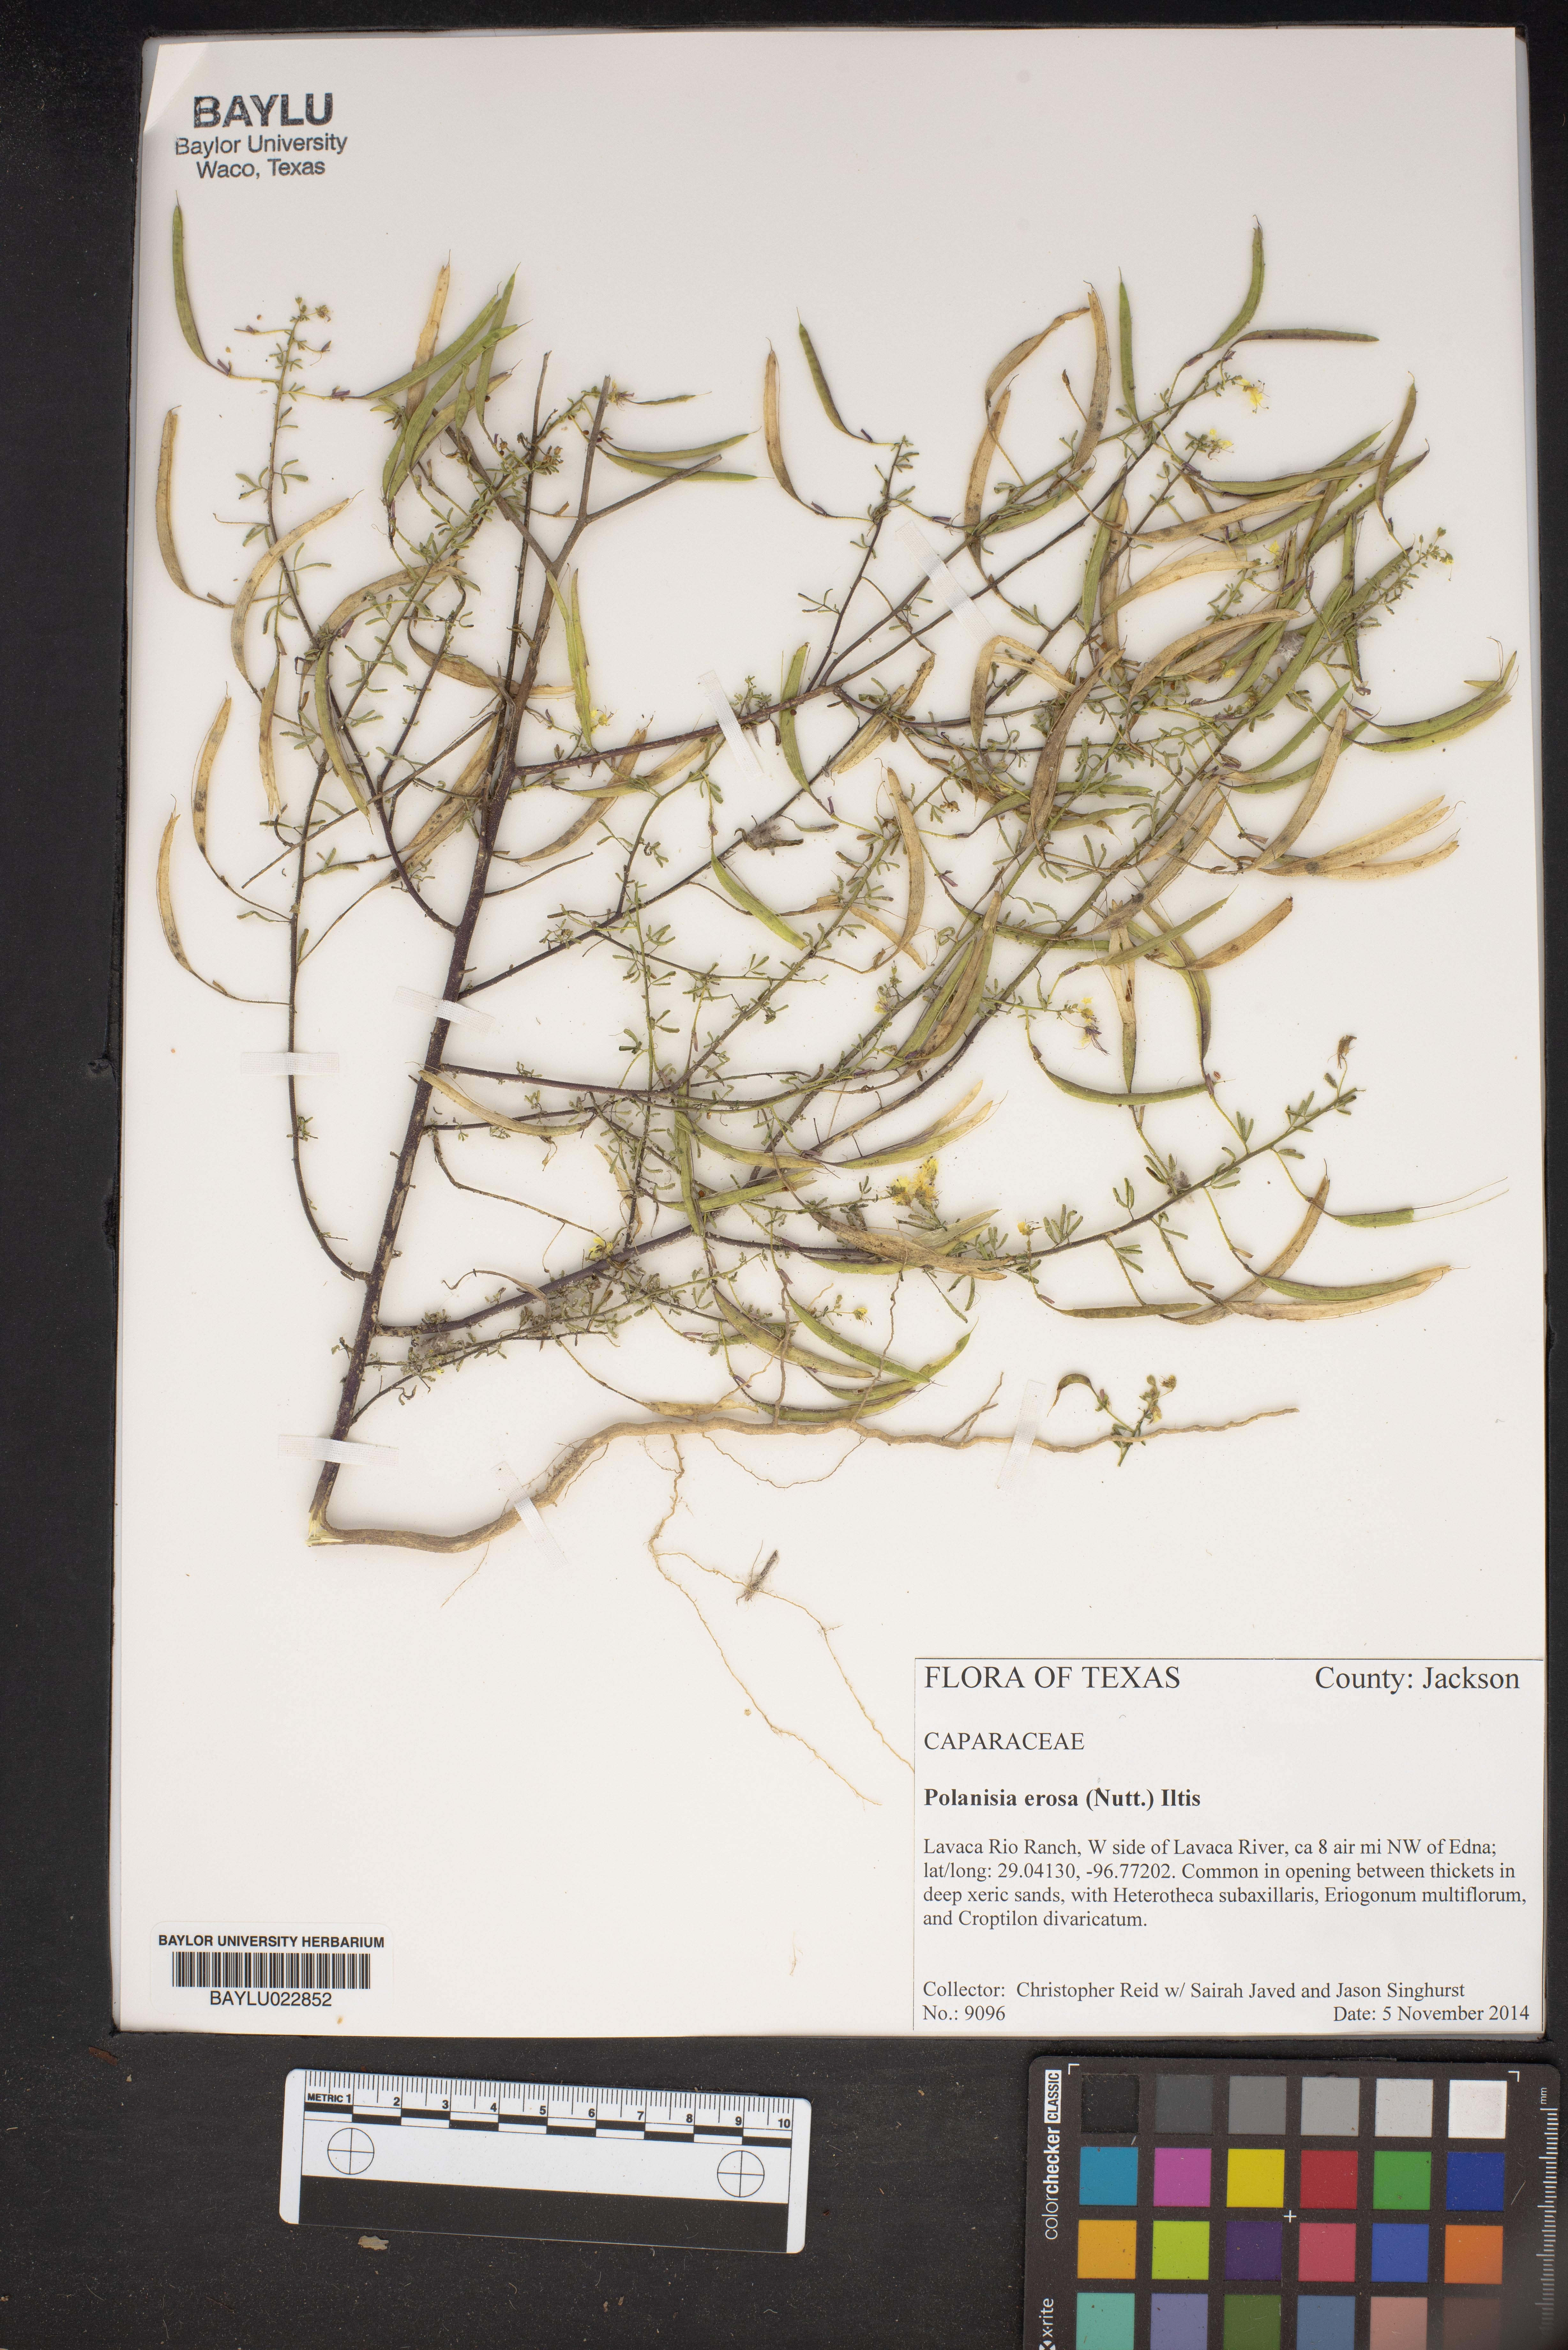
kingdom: Plantae
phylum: Tracheophyta
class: Magnoliopsida
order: Brassicales
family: Cleomaceae
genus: Polanisia
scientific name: Polanisia erosa
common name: Large clammyweed
